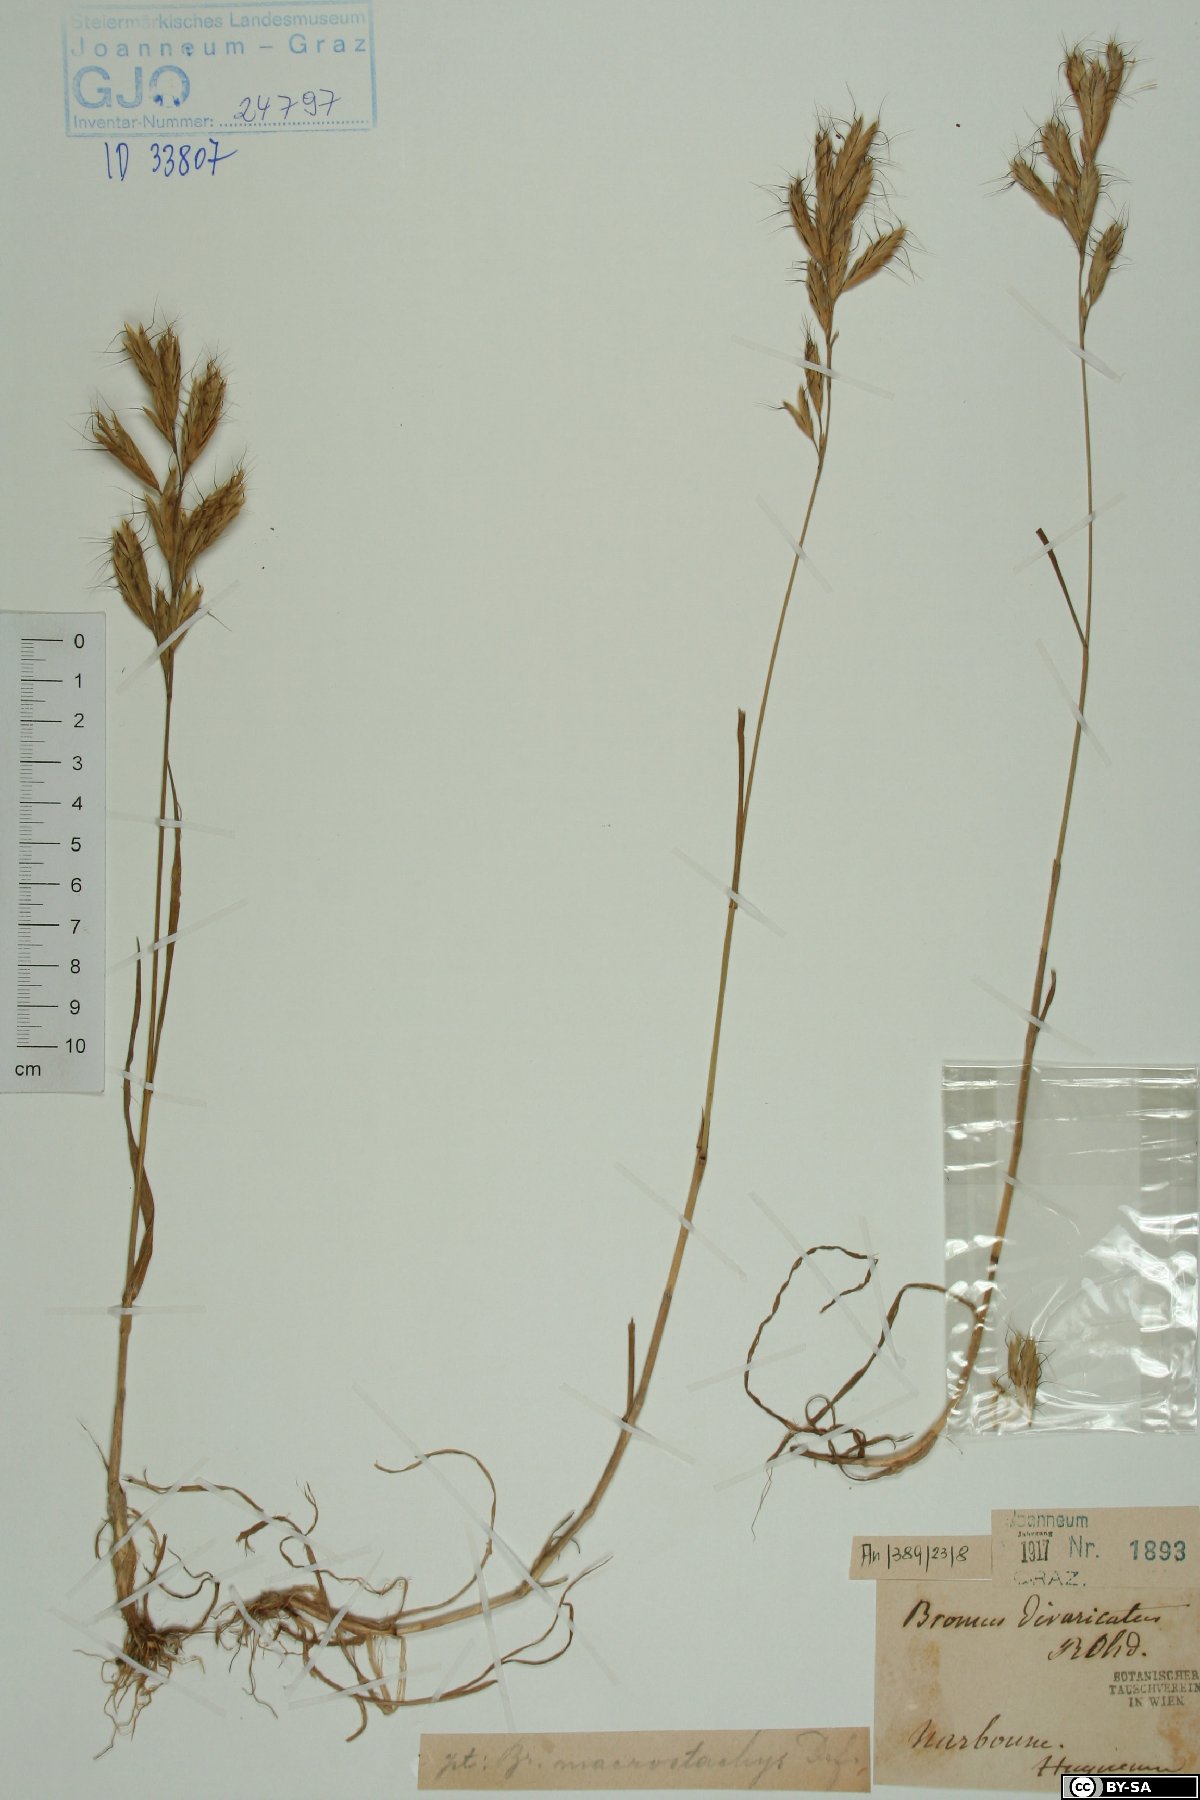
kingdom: Plantae
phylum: Tracheophyta
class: Liliopsida
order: Poales
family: Poaceae
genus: Bromus
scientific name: Bromus lanceolatus
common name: Mediterranean brome
